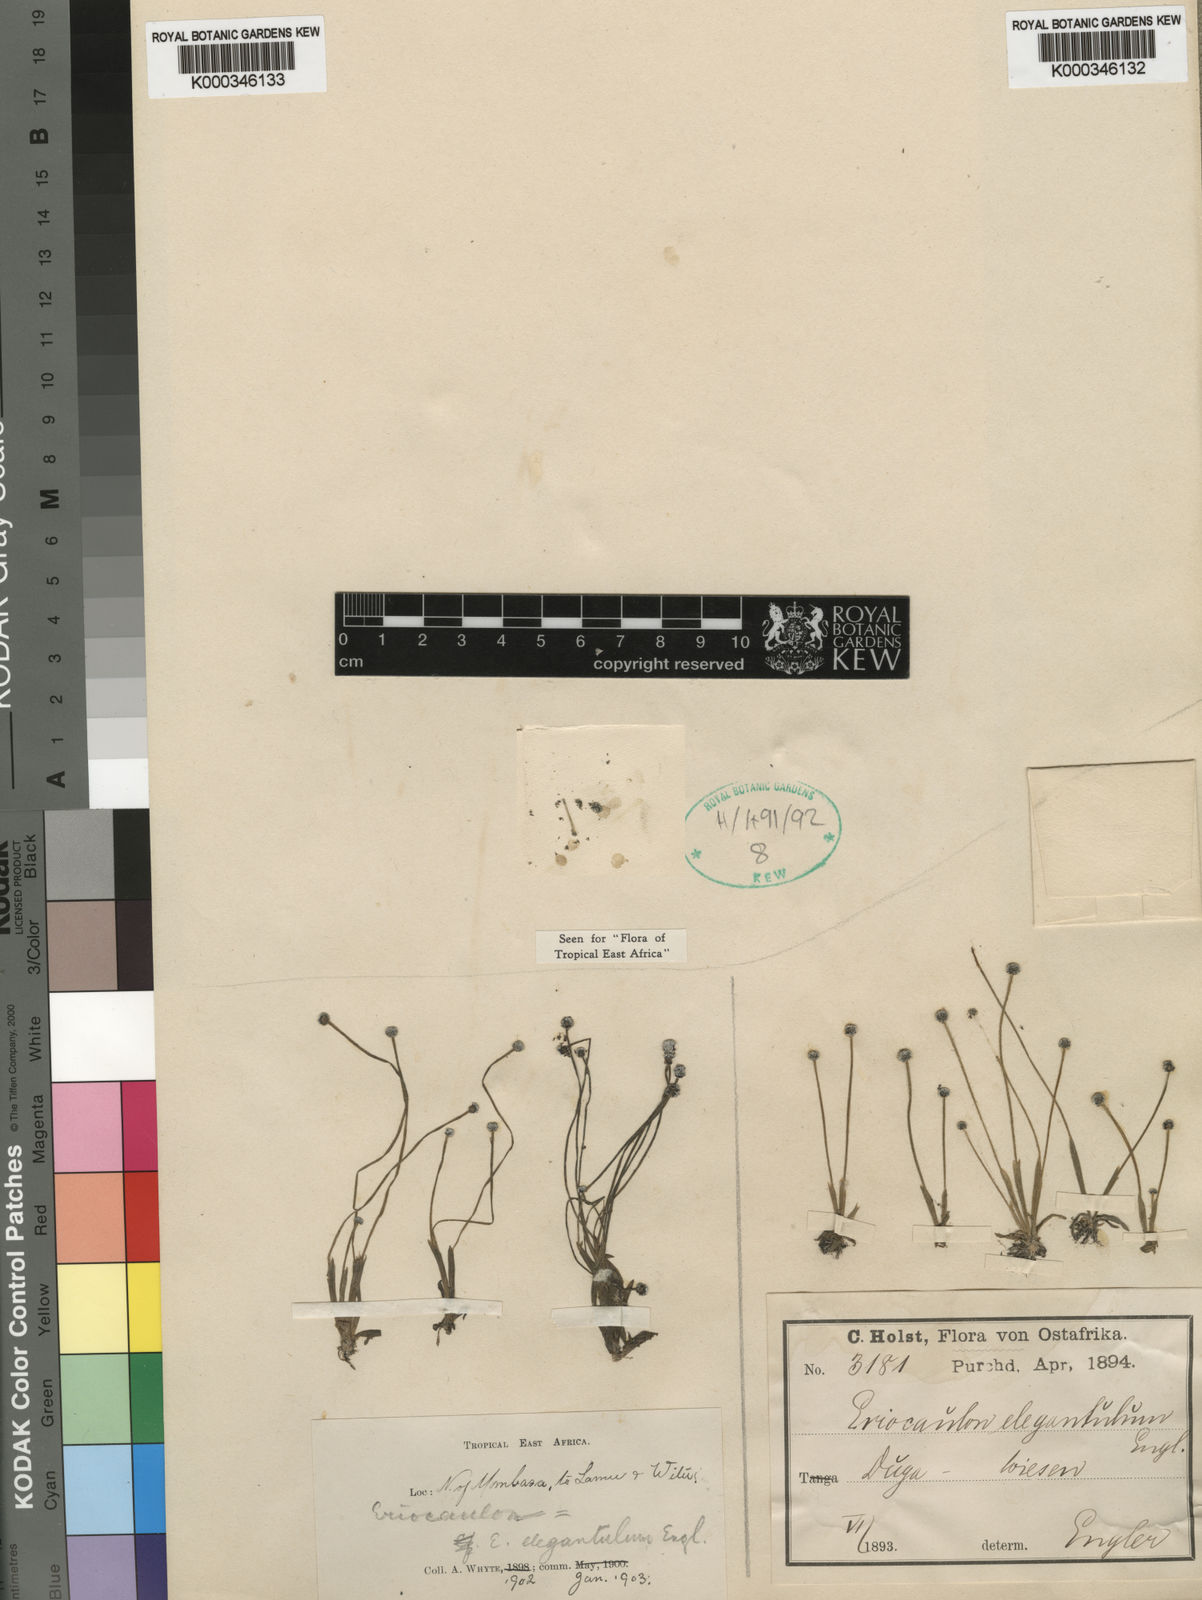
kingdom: Plantae
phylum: Tracheophyta
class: Liliopsida
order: Poales
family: Eriocaulaceae
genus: Eriocaulon
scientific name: Eriocaulon elegantulum
